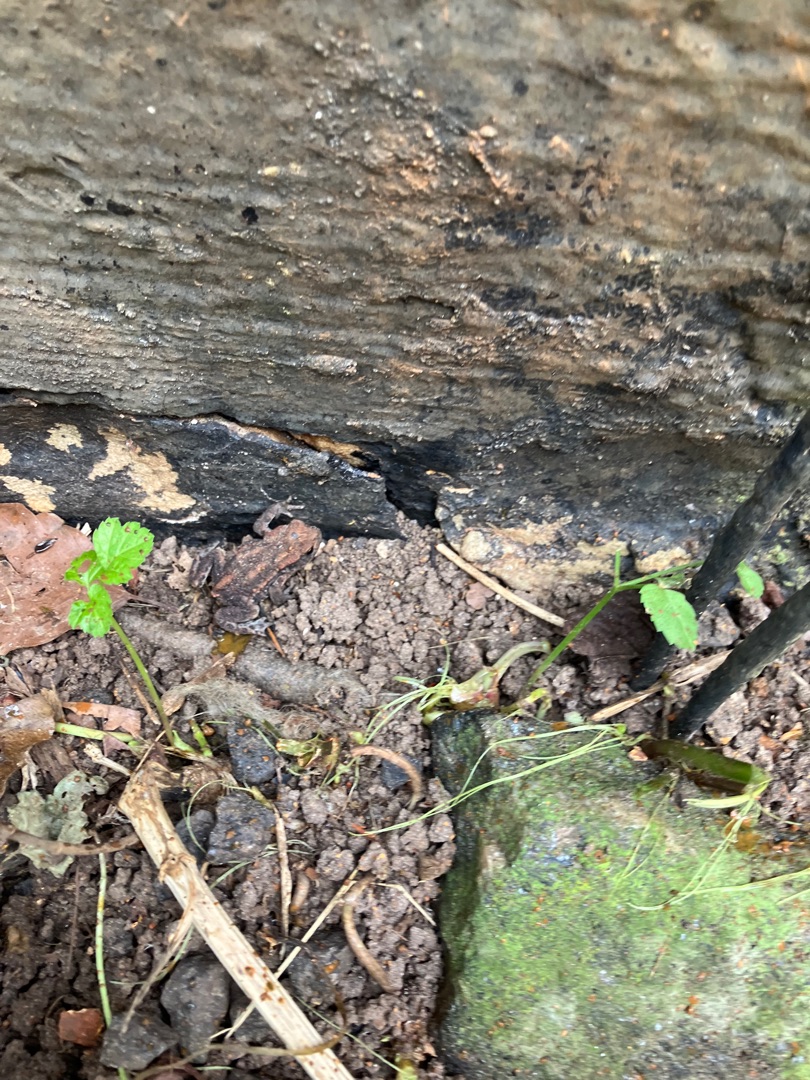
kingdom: Animalia
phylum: Chordata
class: Amphibia
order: Anura
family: Bufonidae
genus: Bufo
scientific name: Bufo bufo
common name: Skrubtudse
